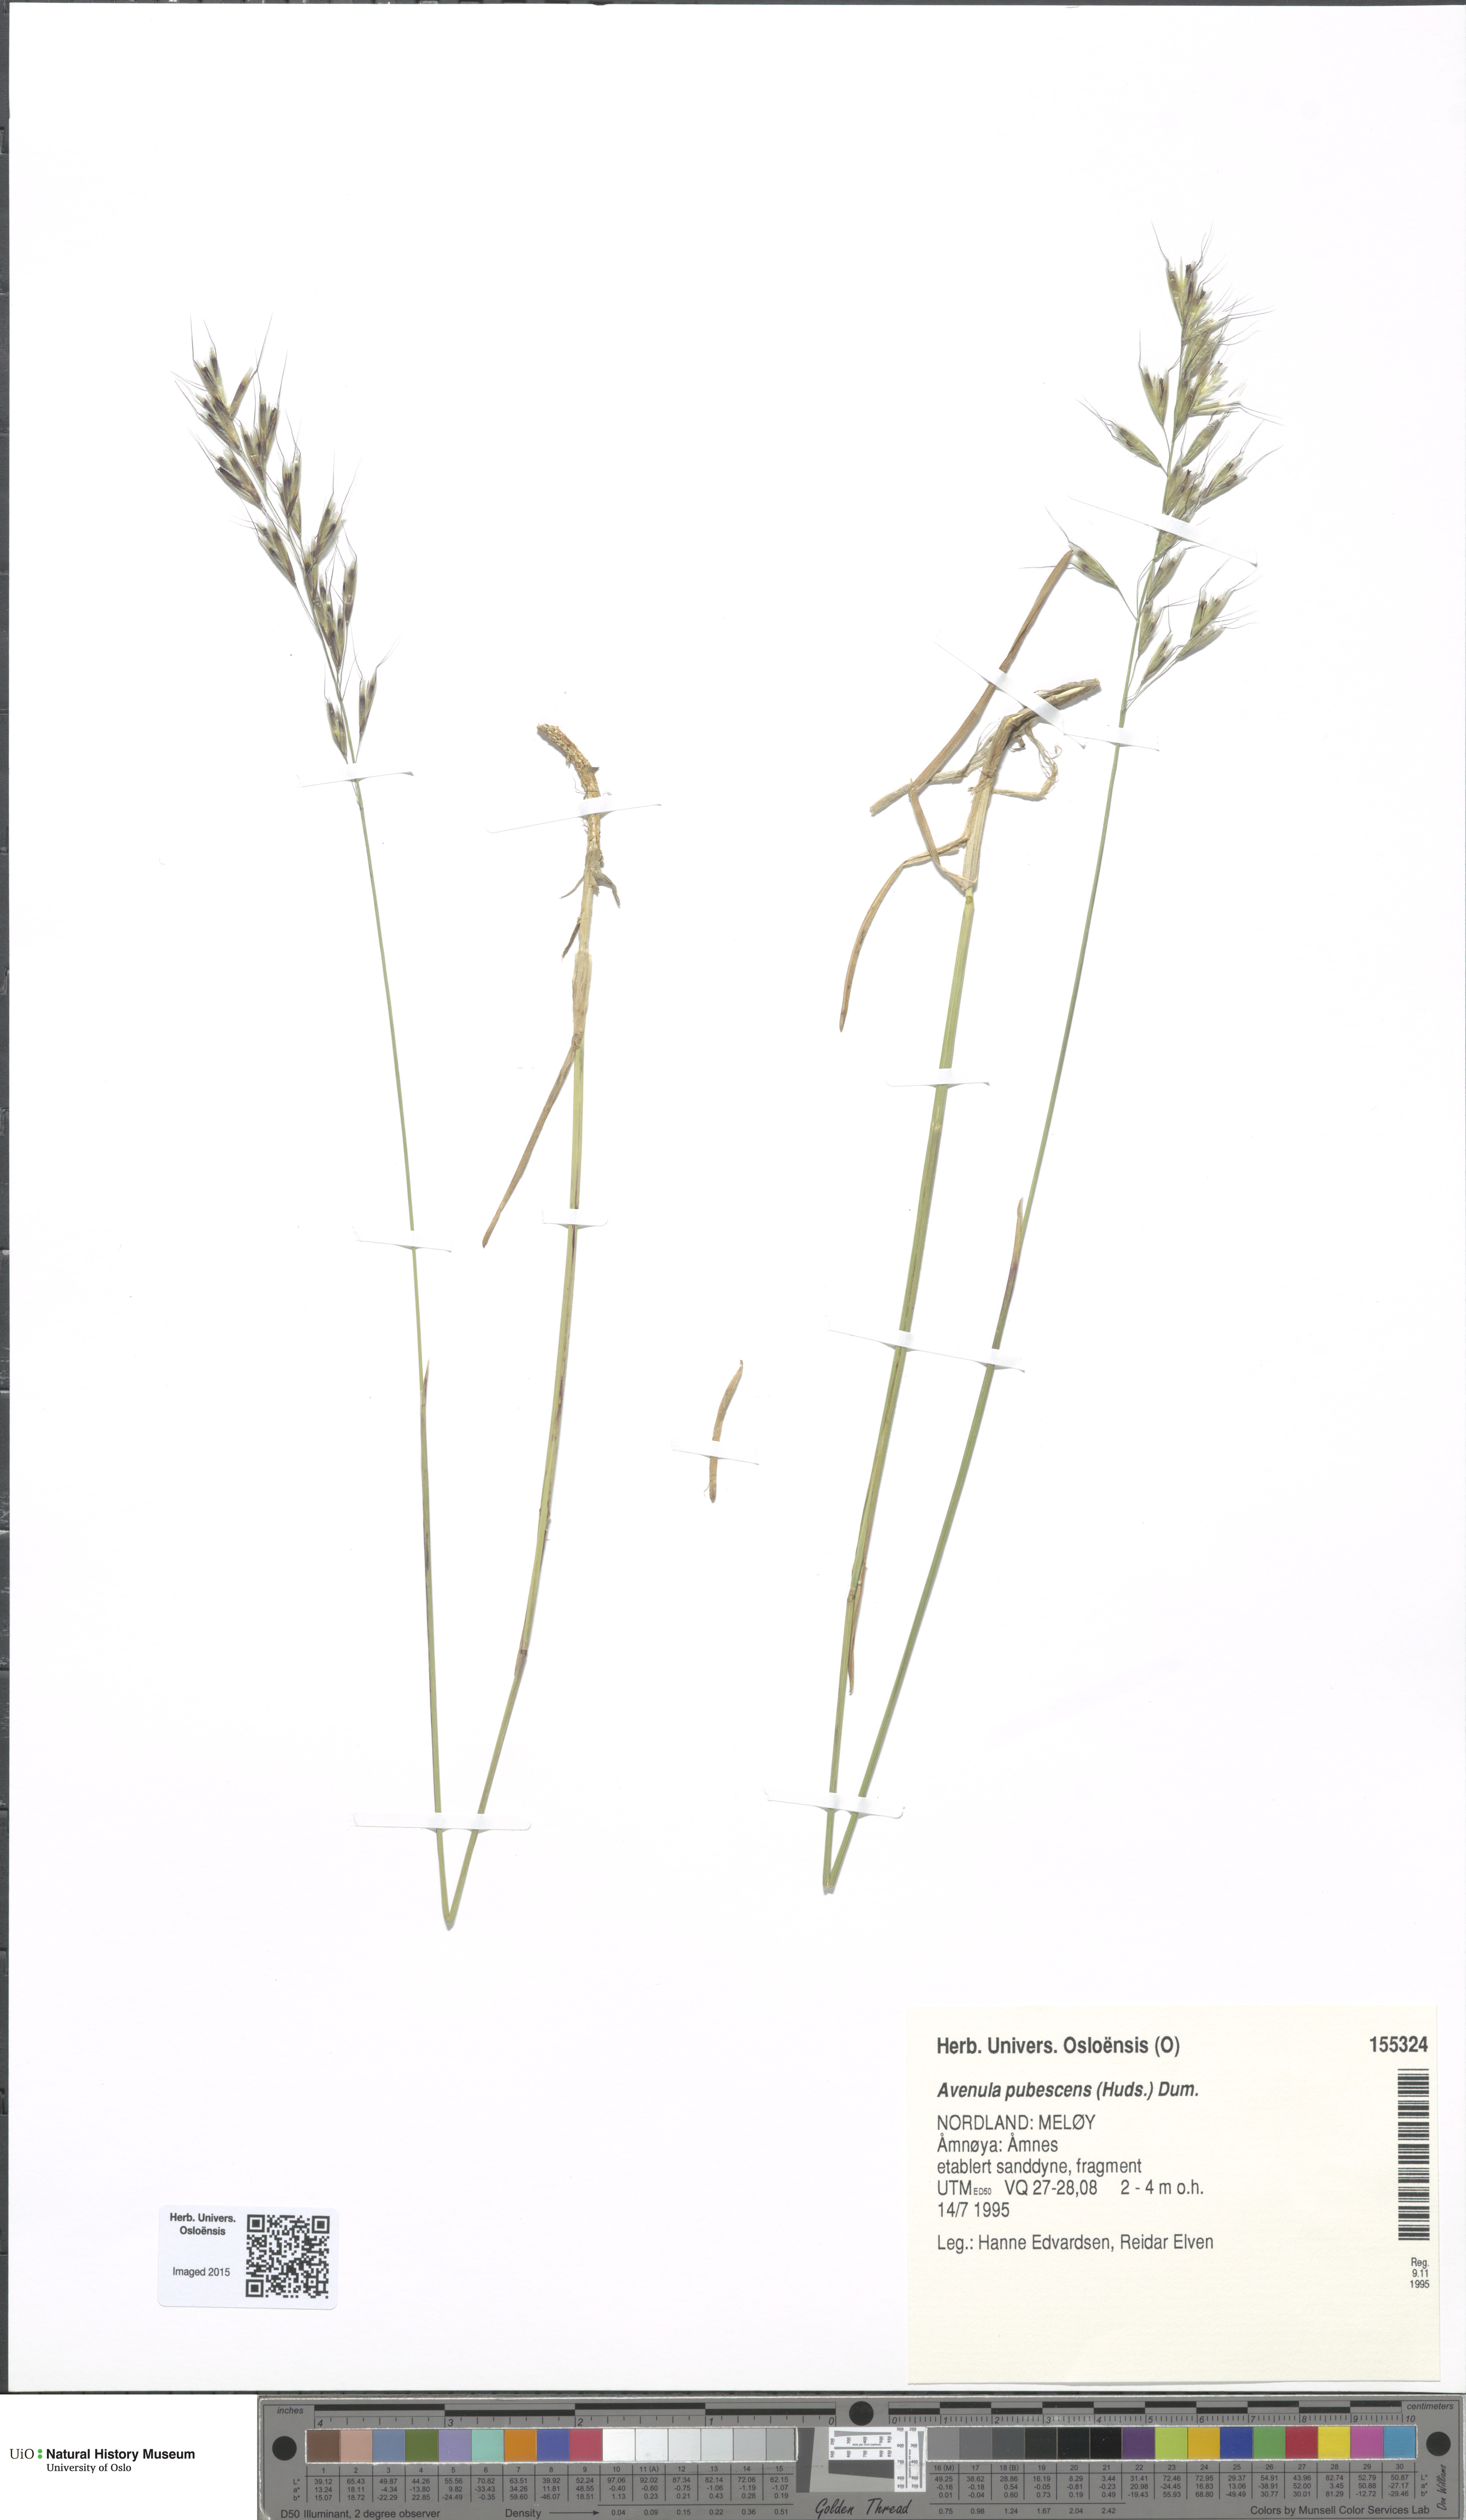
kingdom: Plantae
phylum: Tracheophyta
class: Liliopsida
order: Poales
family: Poaceae
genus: Avenula
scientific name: Avenula pubescens
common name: Downy alpine oatgrass
